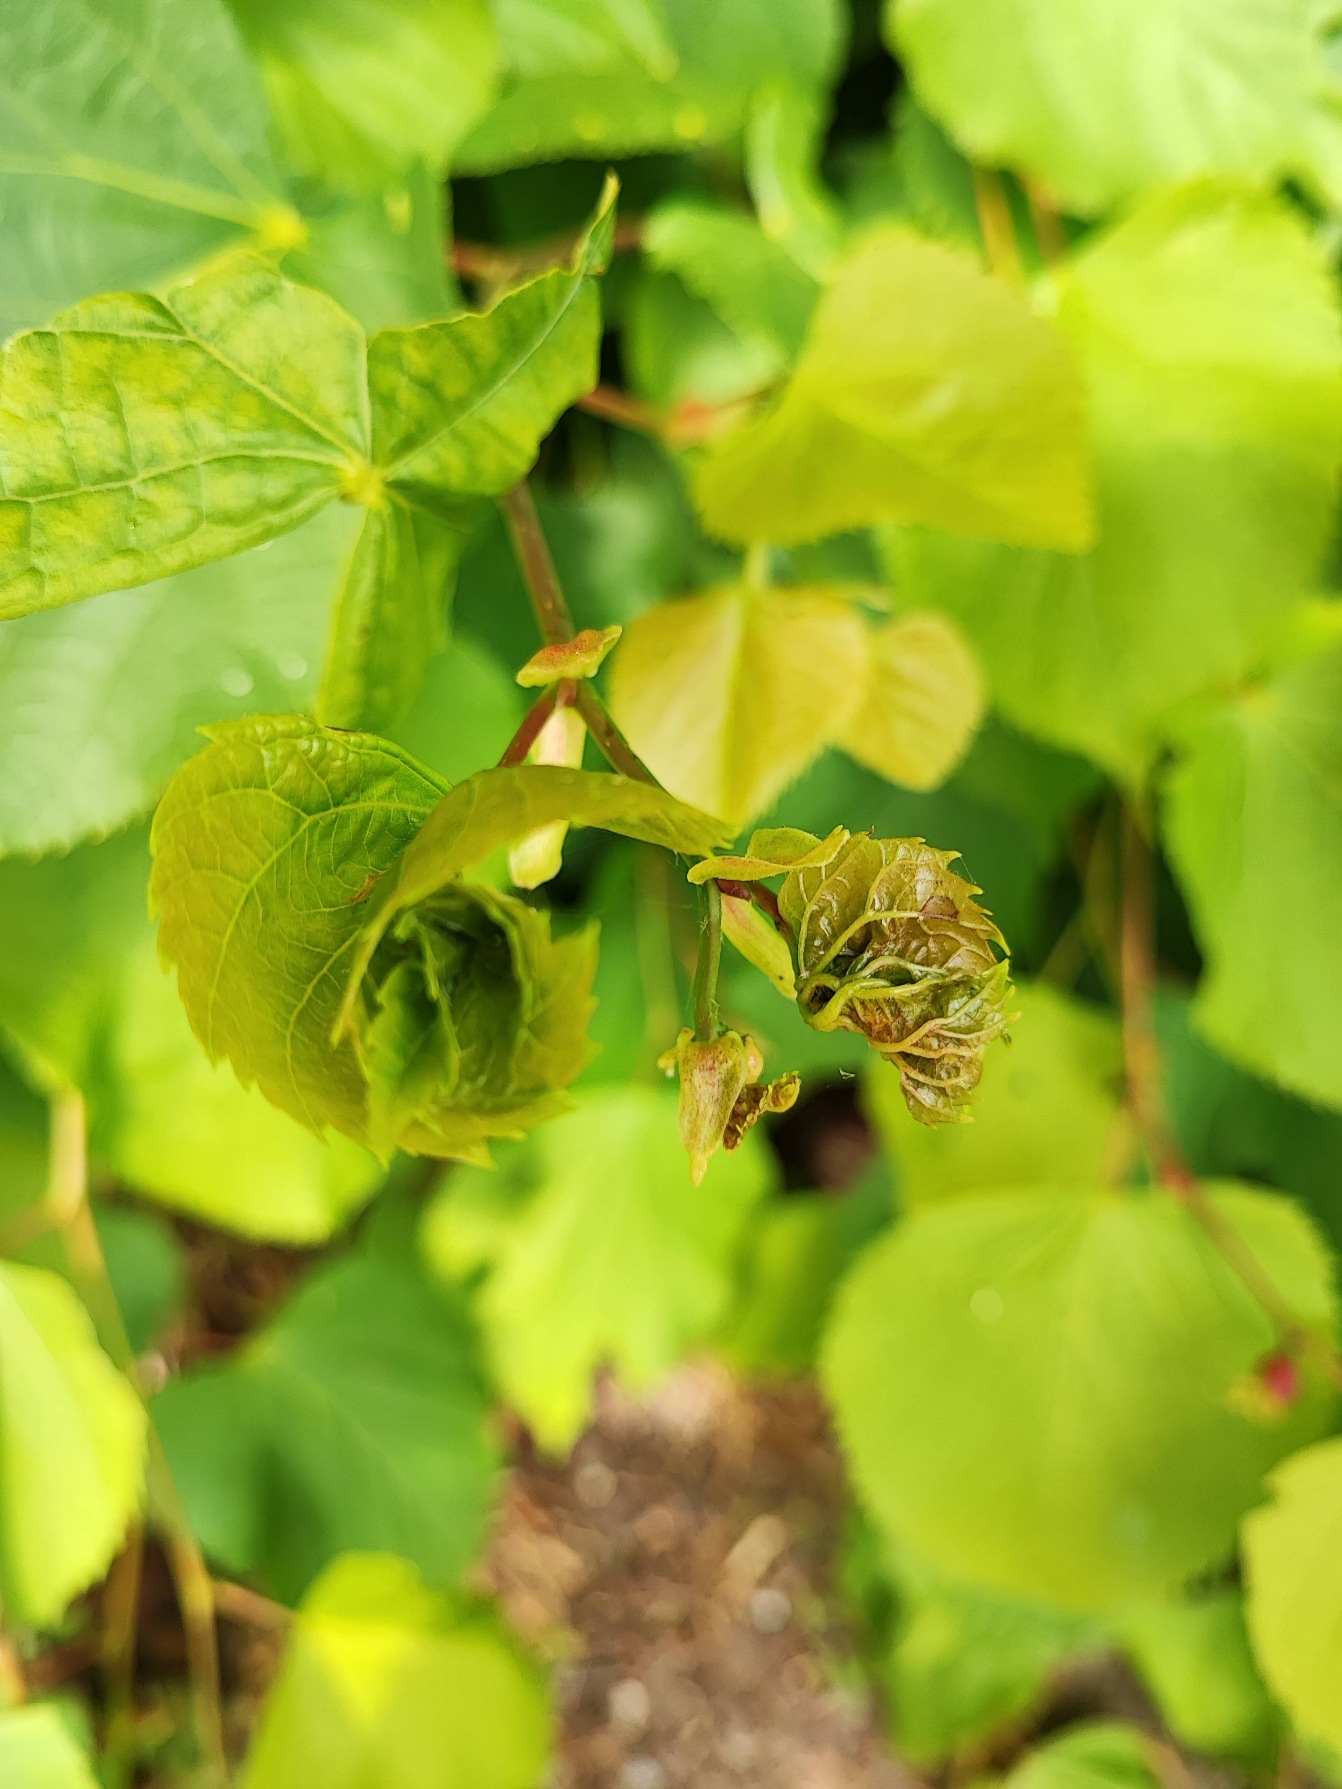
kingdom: Animalia
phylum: Arthropoda
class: Insecta
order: Diptera
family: Cecidomyiidae
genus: Dasineura
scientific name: Dasineura thomasiana
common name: Lindekrusegalmyg
